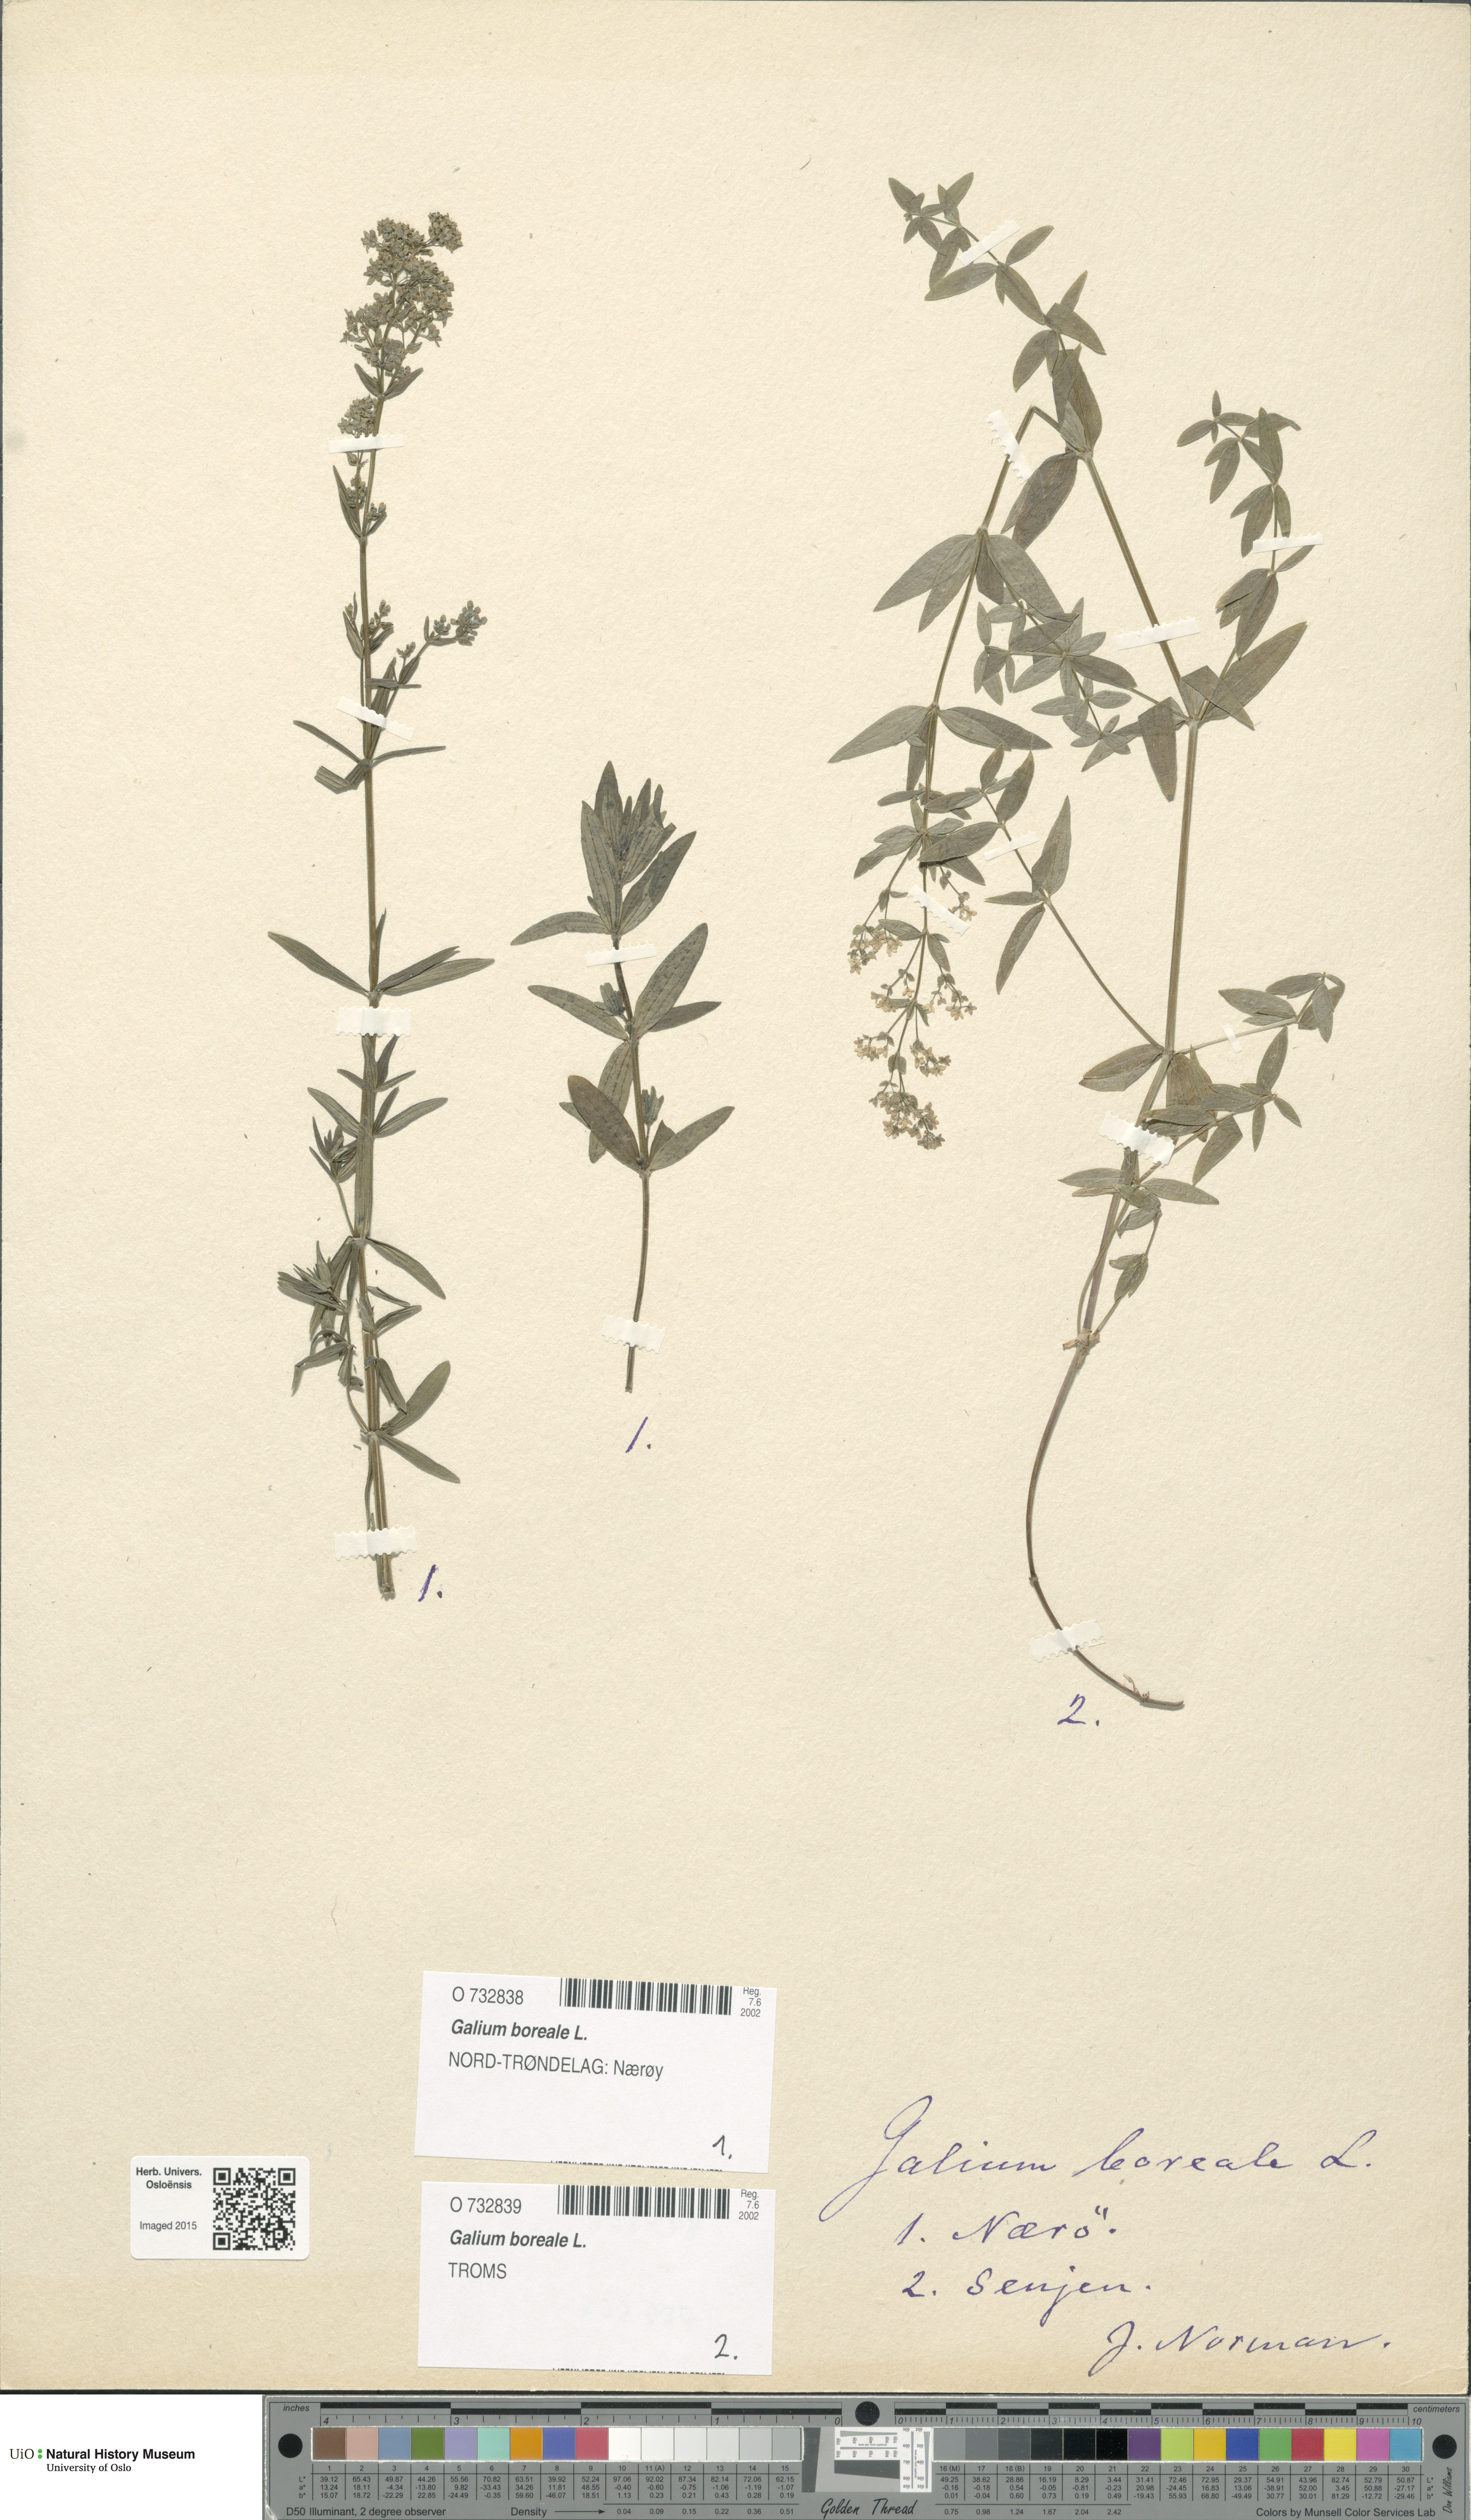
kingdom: Plantae
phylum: Tracheophyta
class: Magnoliopsida
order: Gentianales
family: Rubiaceae
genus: Galium
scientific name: Galium boreale
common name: Northern bedstraw
